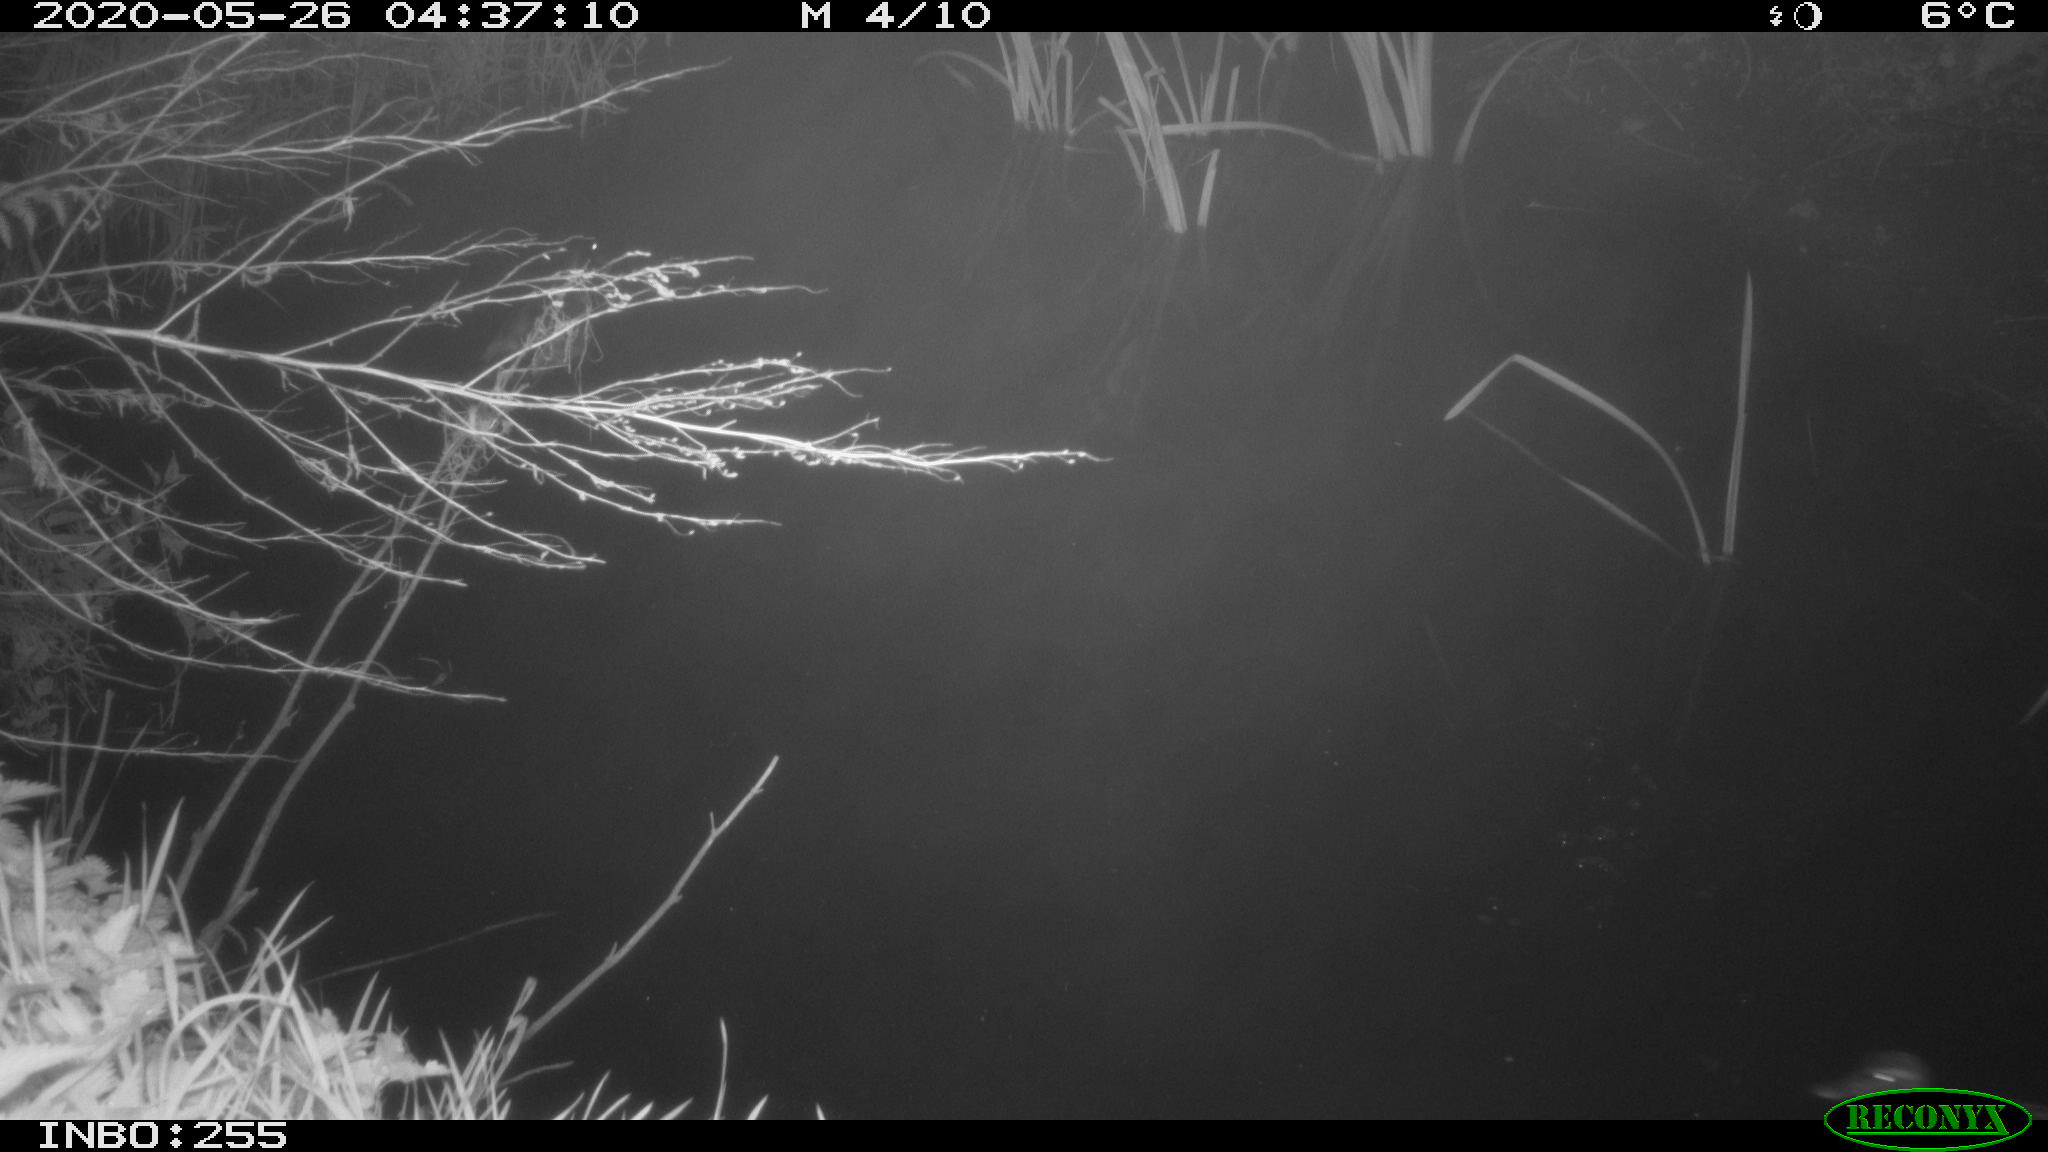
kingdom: Animalia
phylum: Chordata
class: Aves
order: Anseriformes
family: Anatidae
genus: Anas
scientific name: Anas platyrhynchos
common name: Mallard
